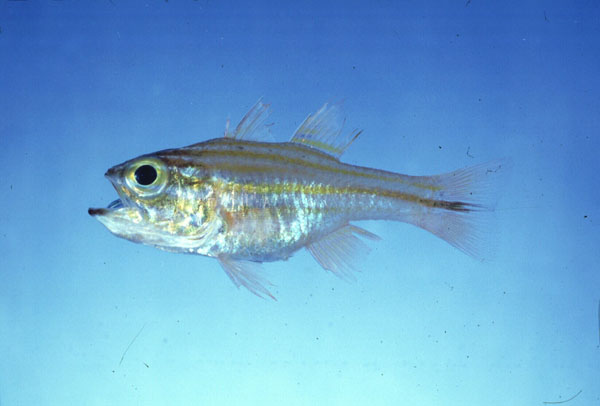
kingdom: Animalia
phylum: Chordata
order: Perciformes
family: Apogonidae
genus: Apogon
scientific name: Apogon nitidus
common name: Bluespot cardinal
